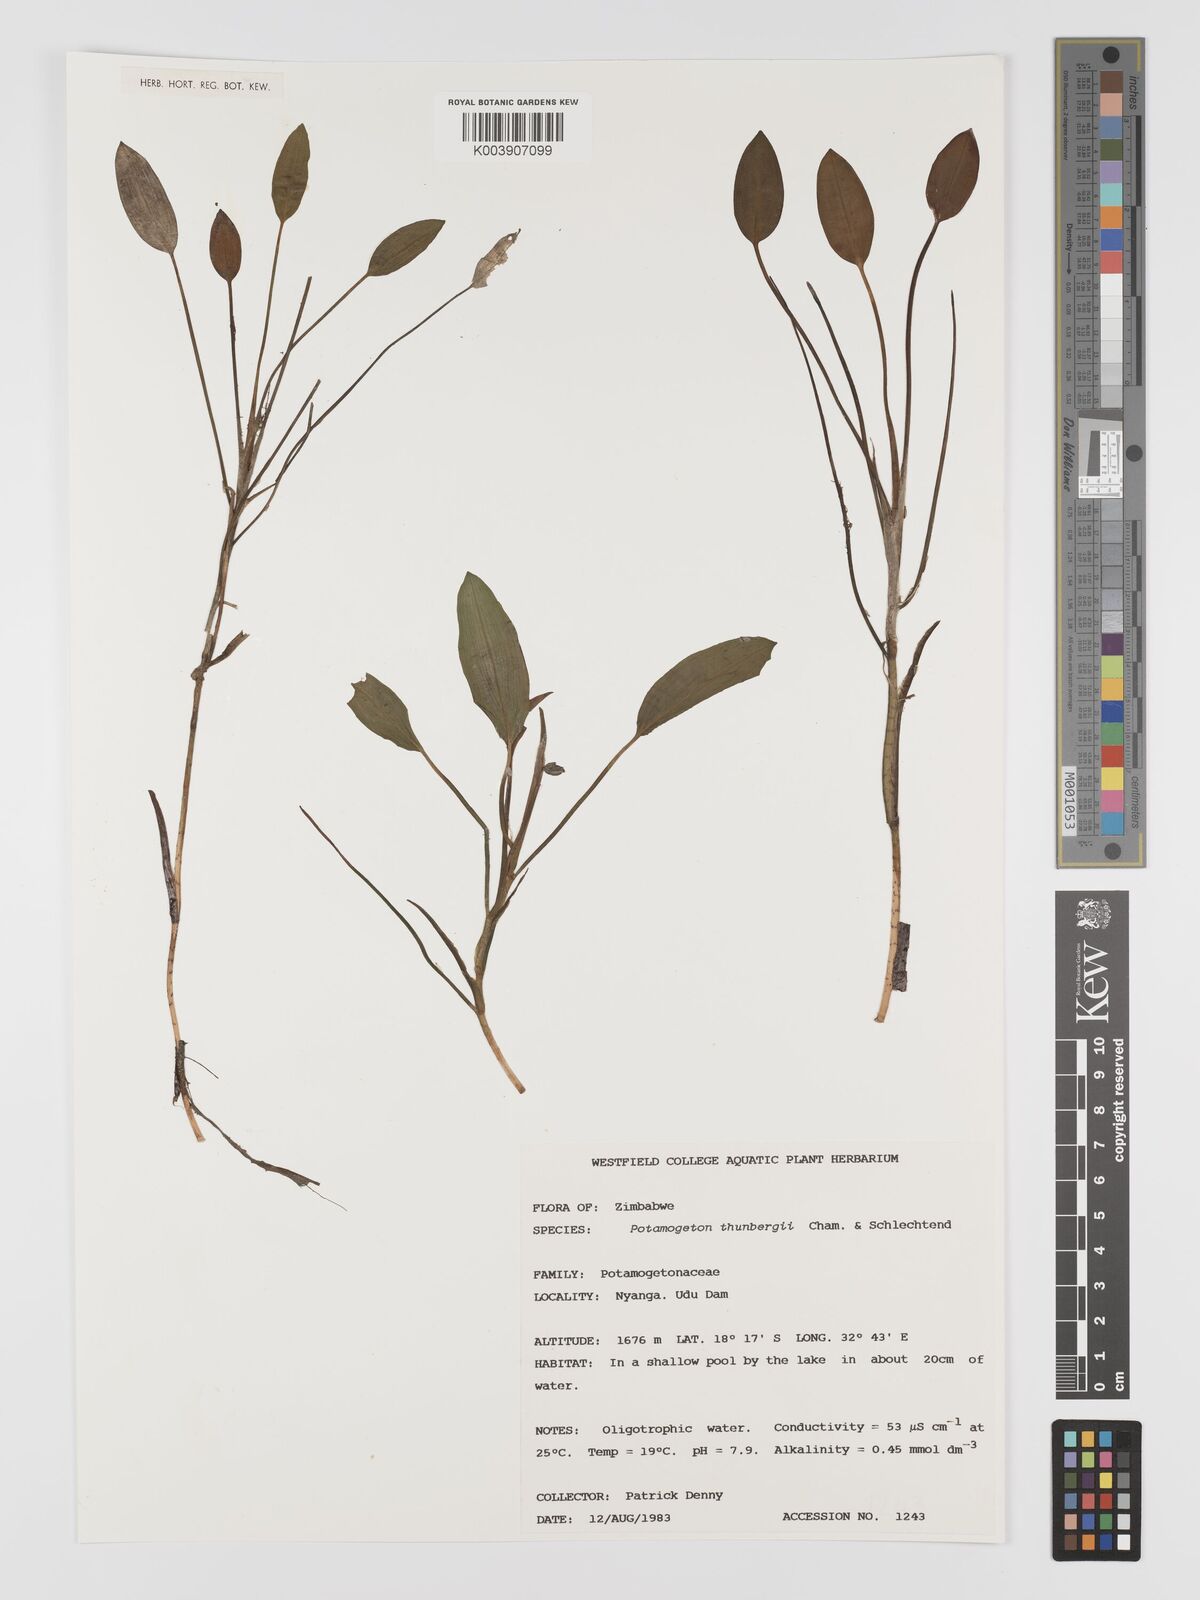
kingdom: Plantae
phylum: Tracheophyta
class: Liliopsida
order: Alismatales
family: Potamogetonaceae
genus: Potamogeton
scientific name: Potamogeton nodosus
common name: Loddon pondweed
